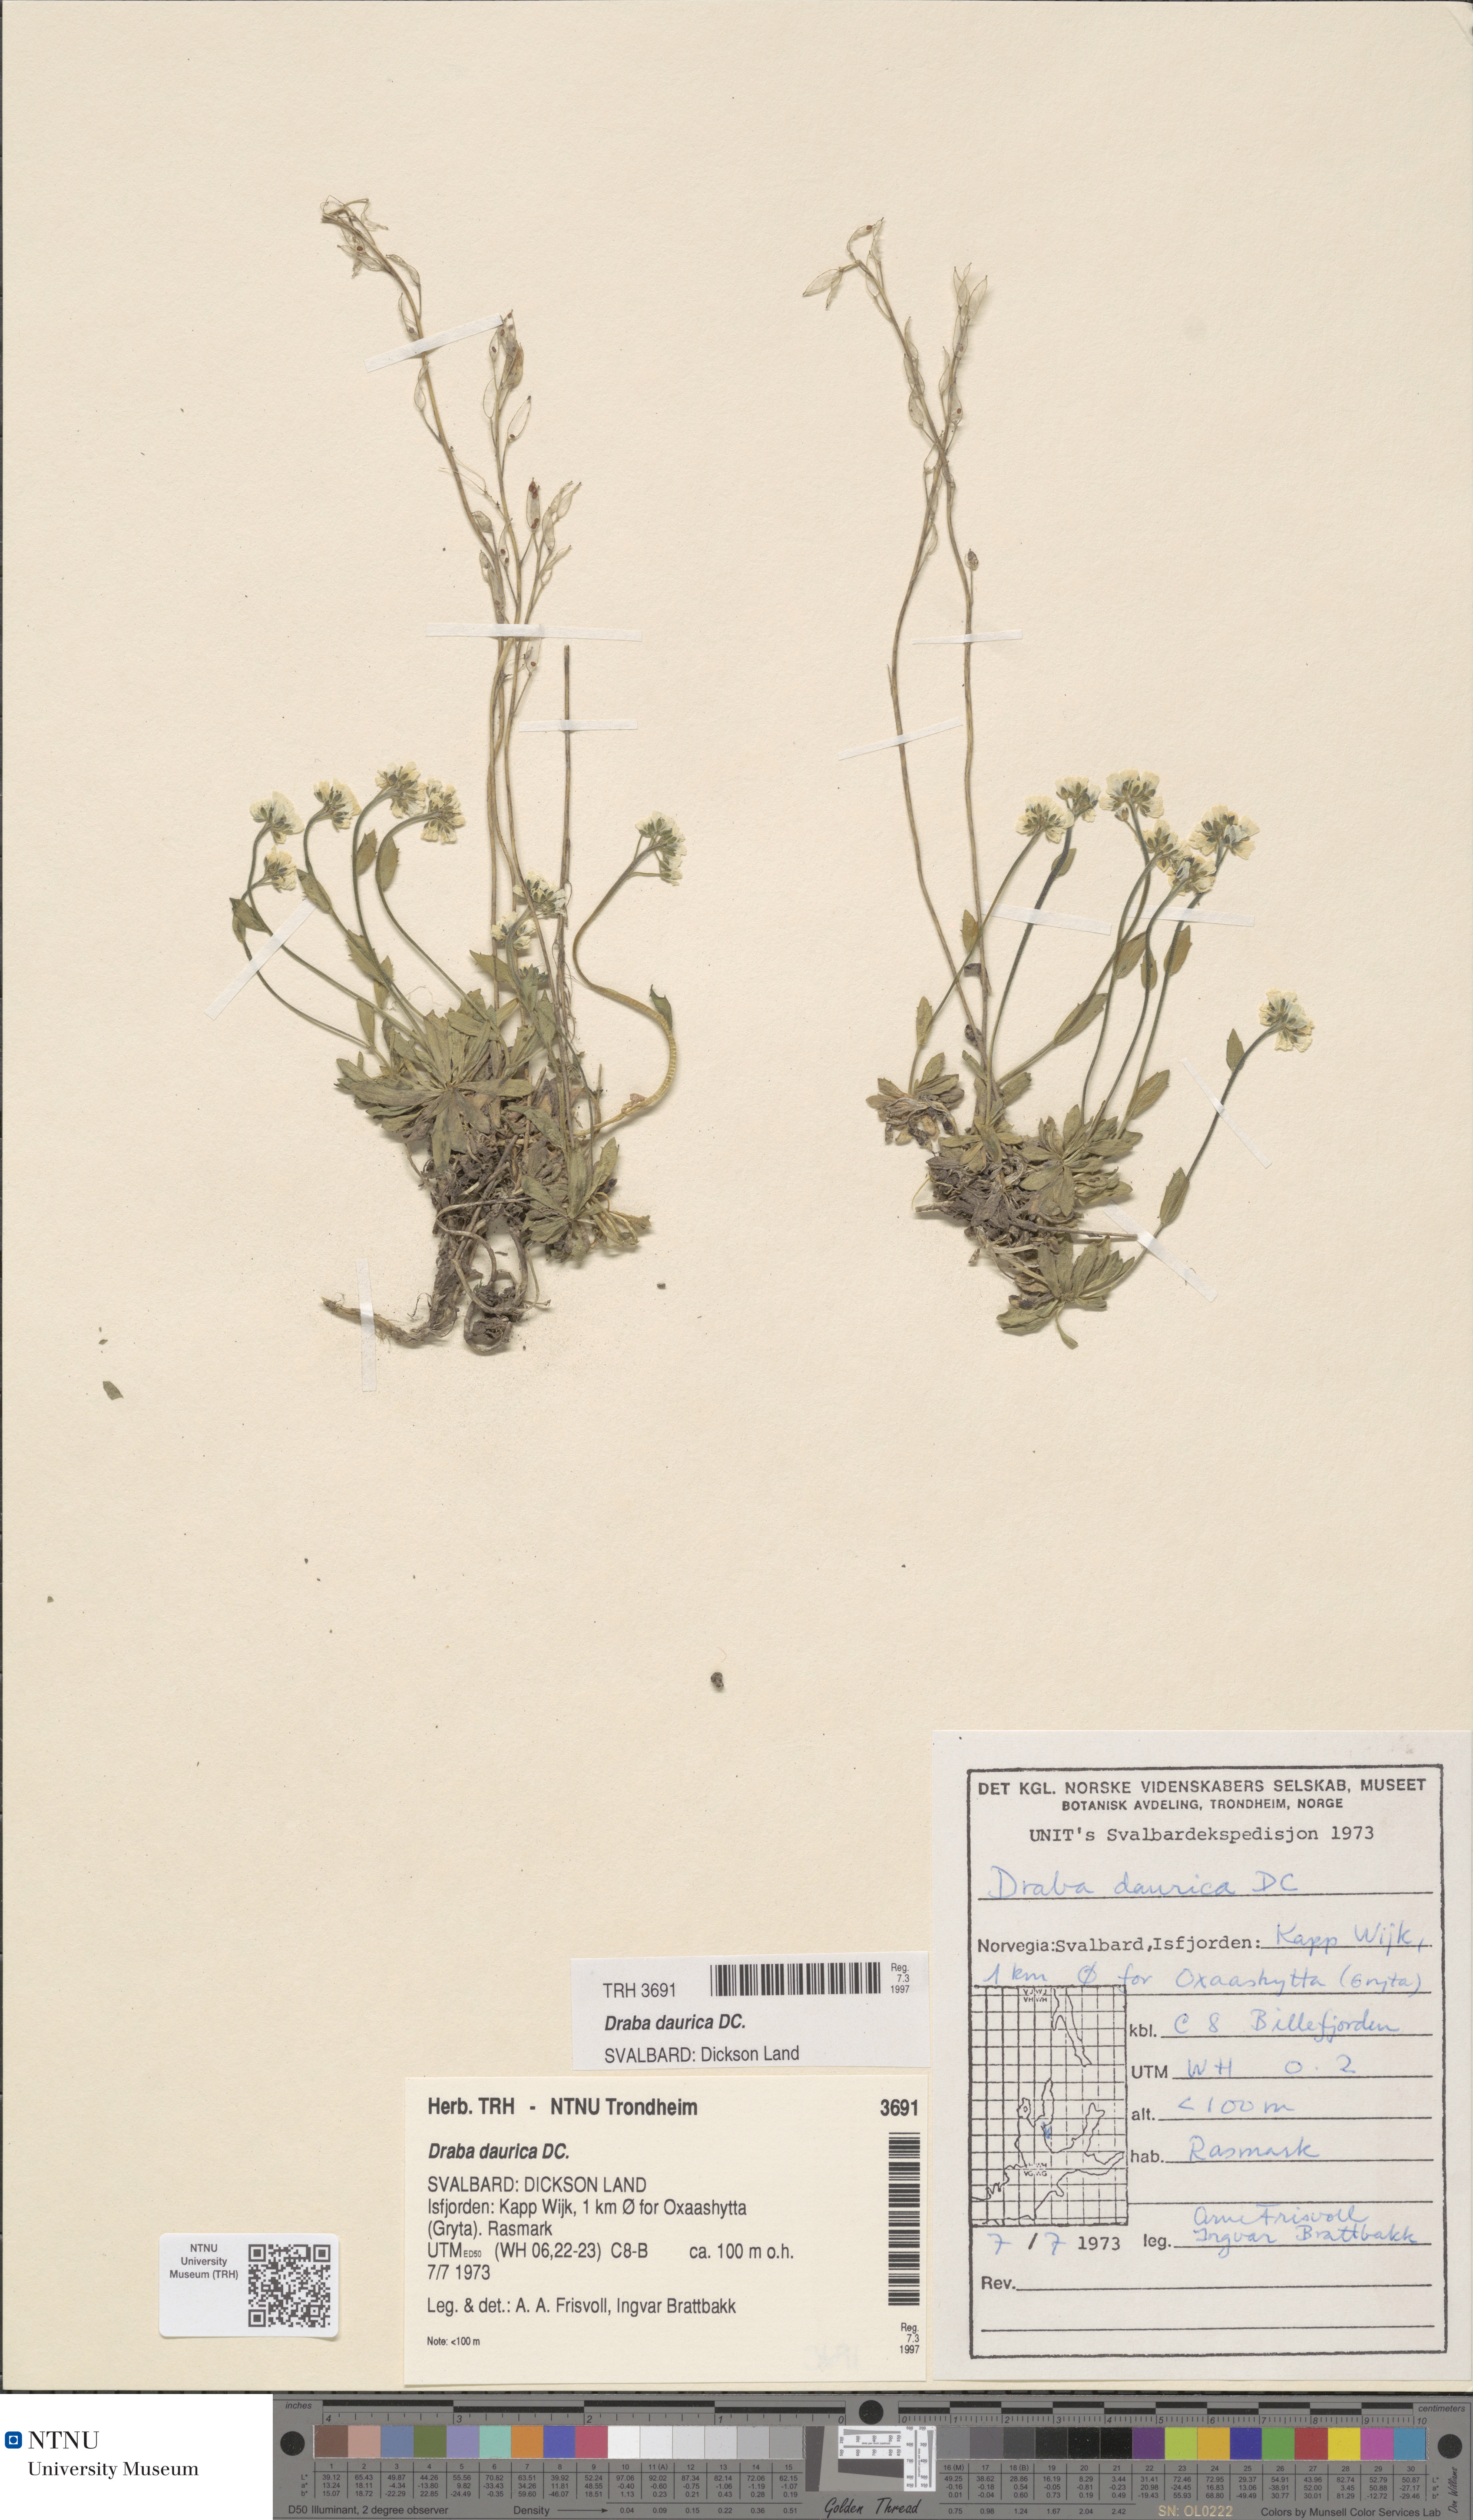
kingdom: Plantae
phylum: Tracheophyta
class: Magnoliopsida
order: Brassicales
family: Brassicaceae
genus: Draba
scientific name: Draba glabella
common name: Glaucous draba
